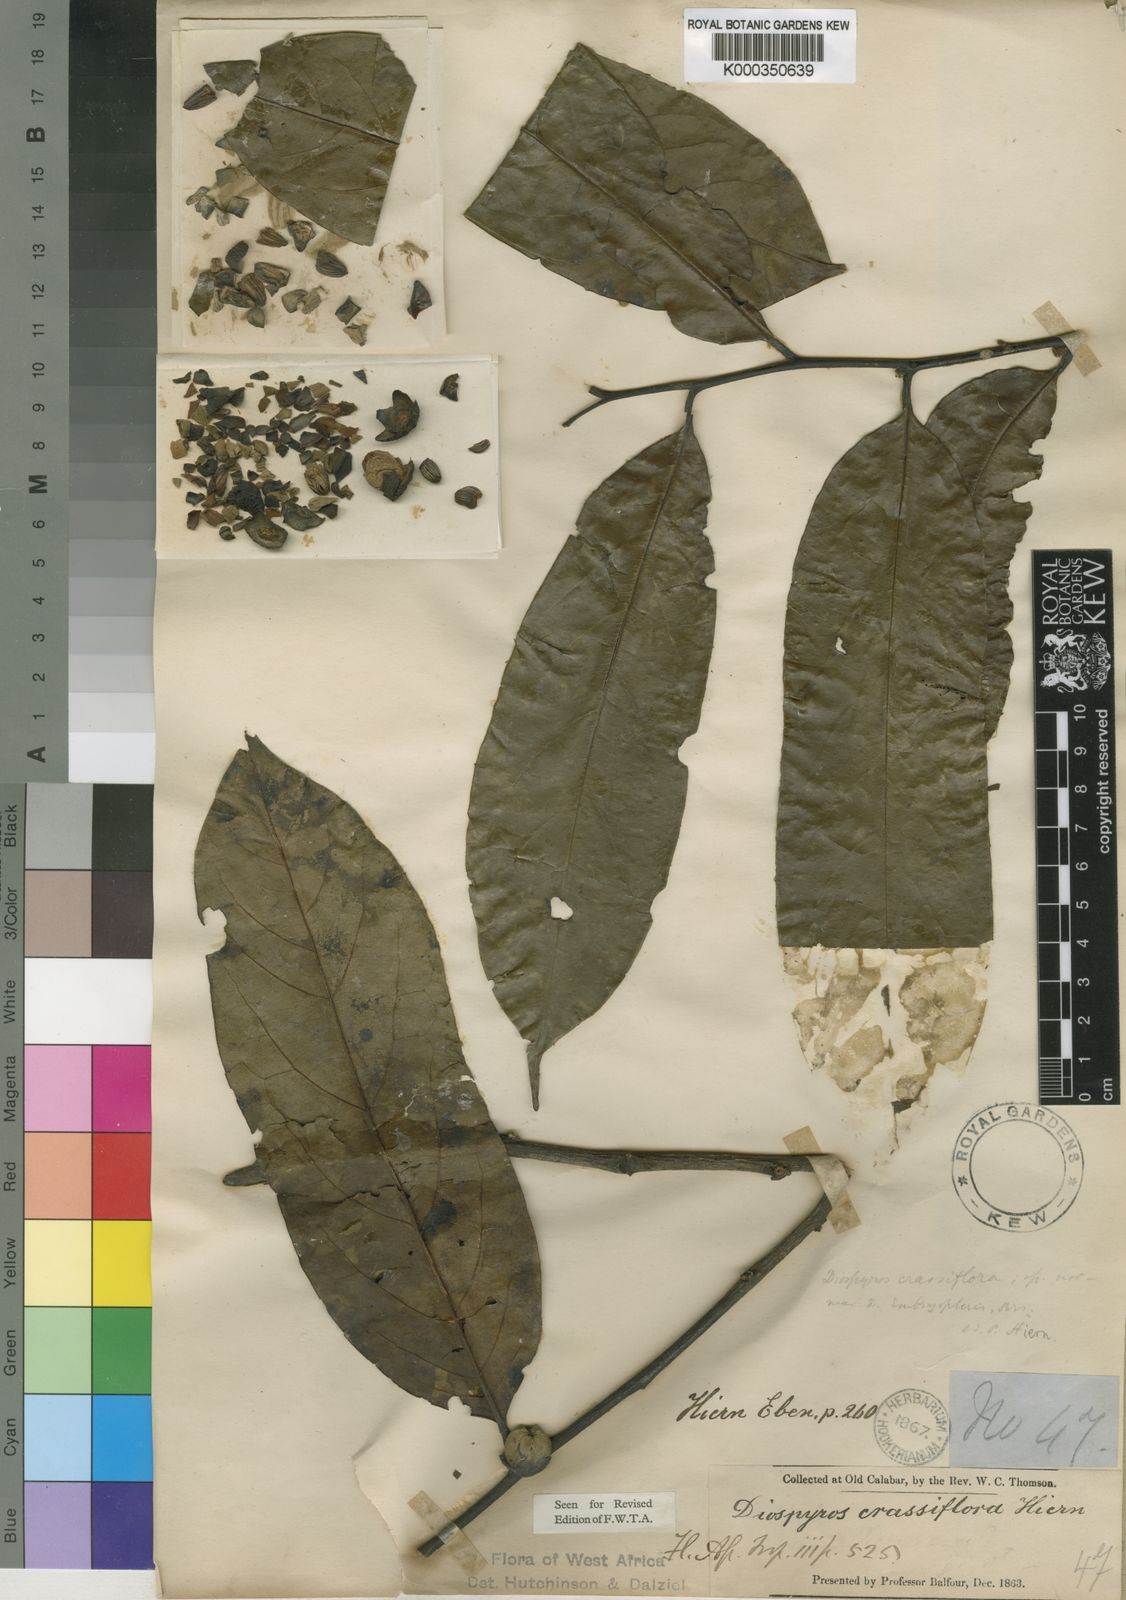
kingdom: Plantae
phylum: Tracheophyta
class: Magnoliopsida
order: Ericales
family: Ebenaceae
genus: Diospyros
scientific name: Diospyros crassiflora
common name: Ebony
